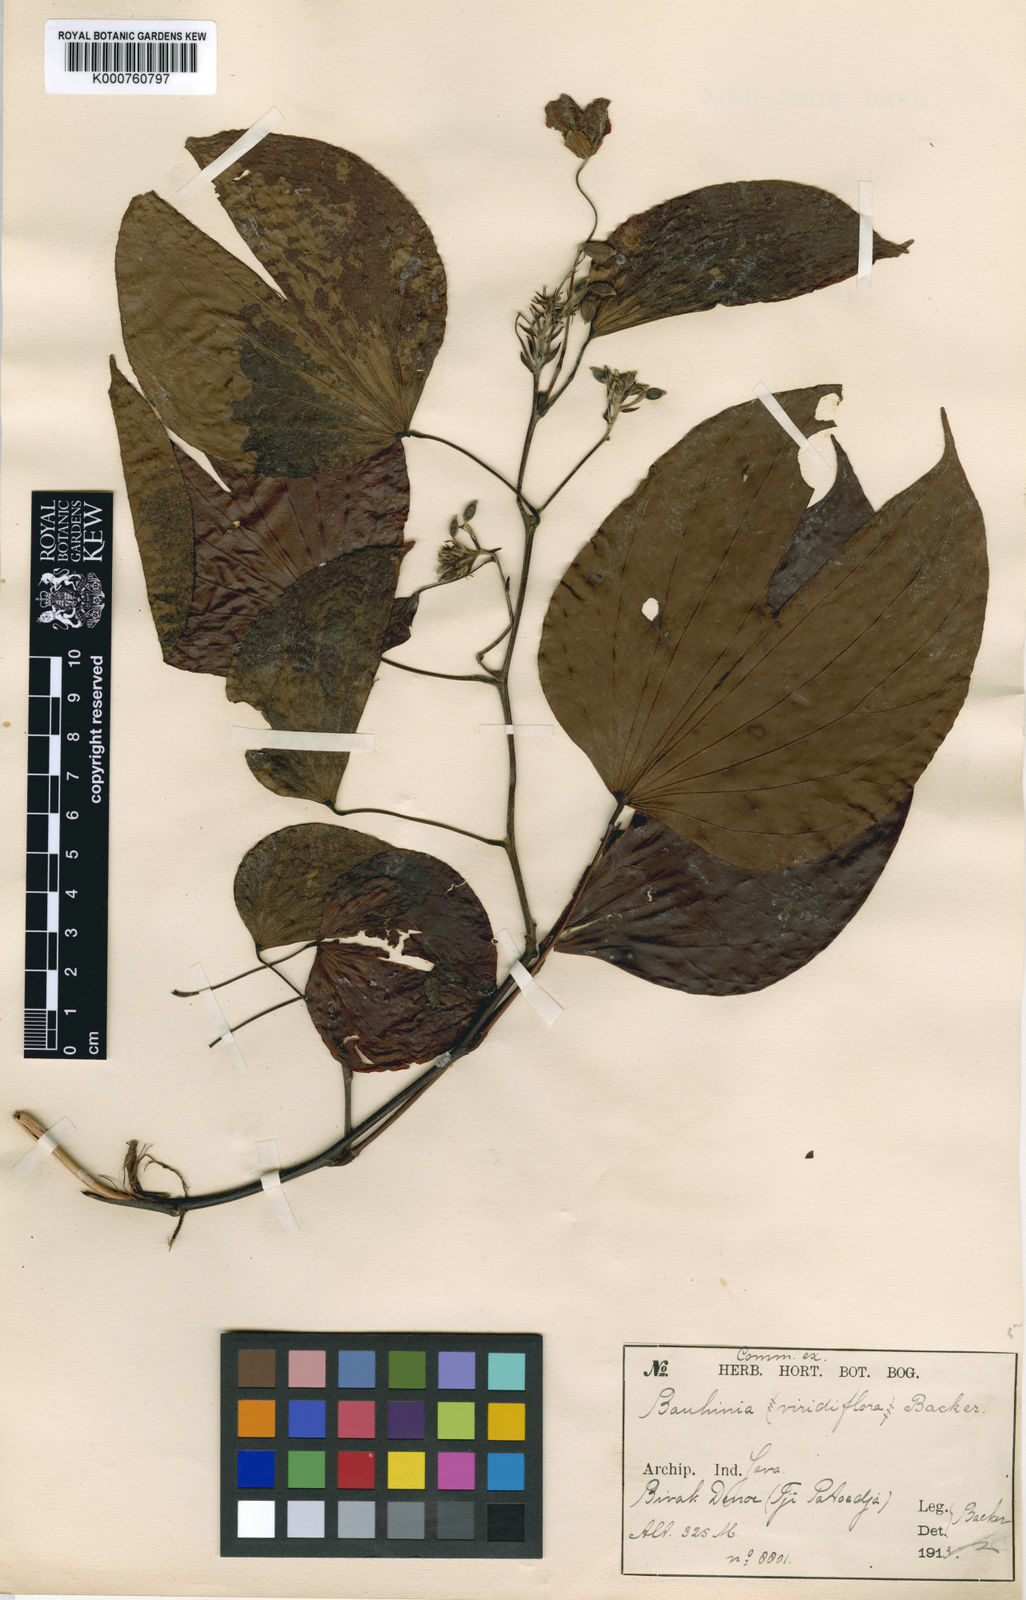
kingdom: Plantae
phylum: Tracheophyta
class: Magnoliopsida
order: Fabales
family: Fabaceae
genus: Phanera
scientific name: Phanera bassacensis
